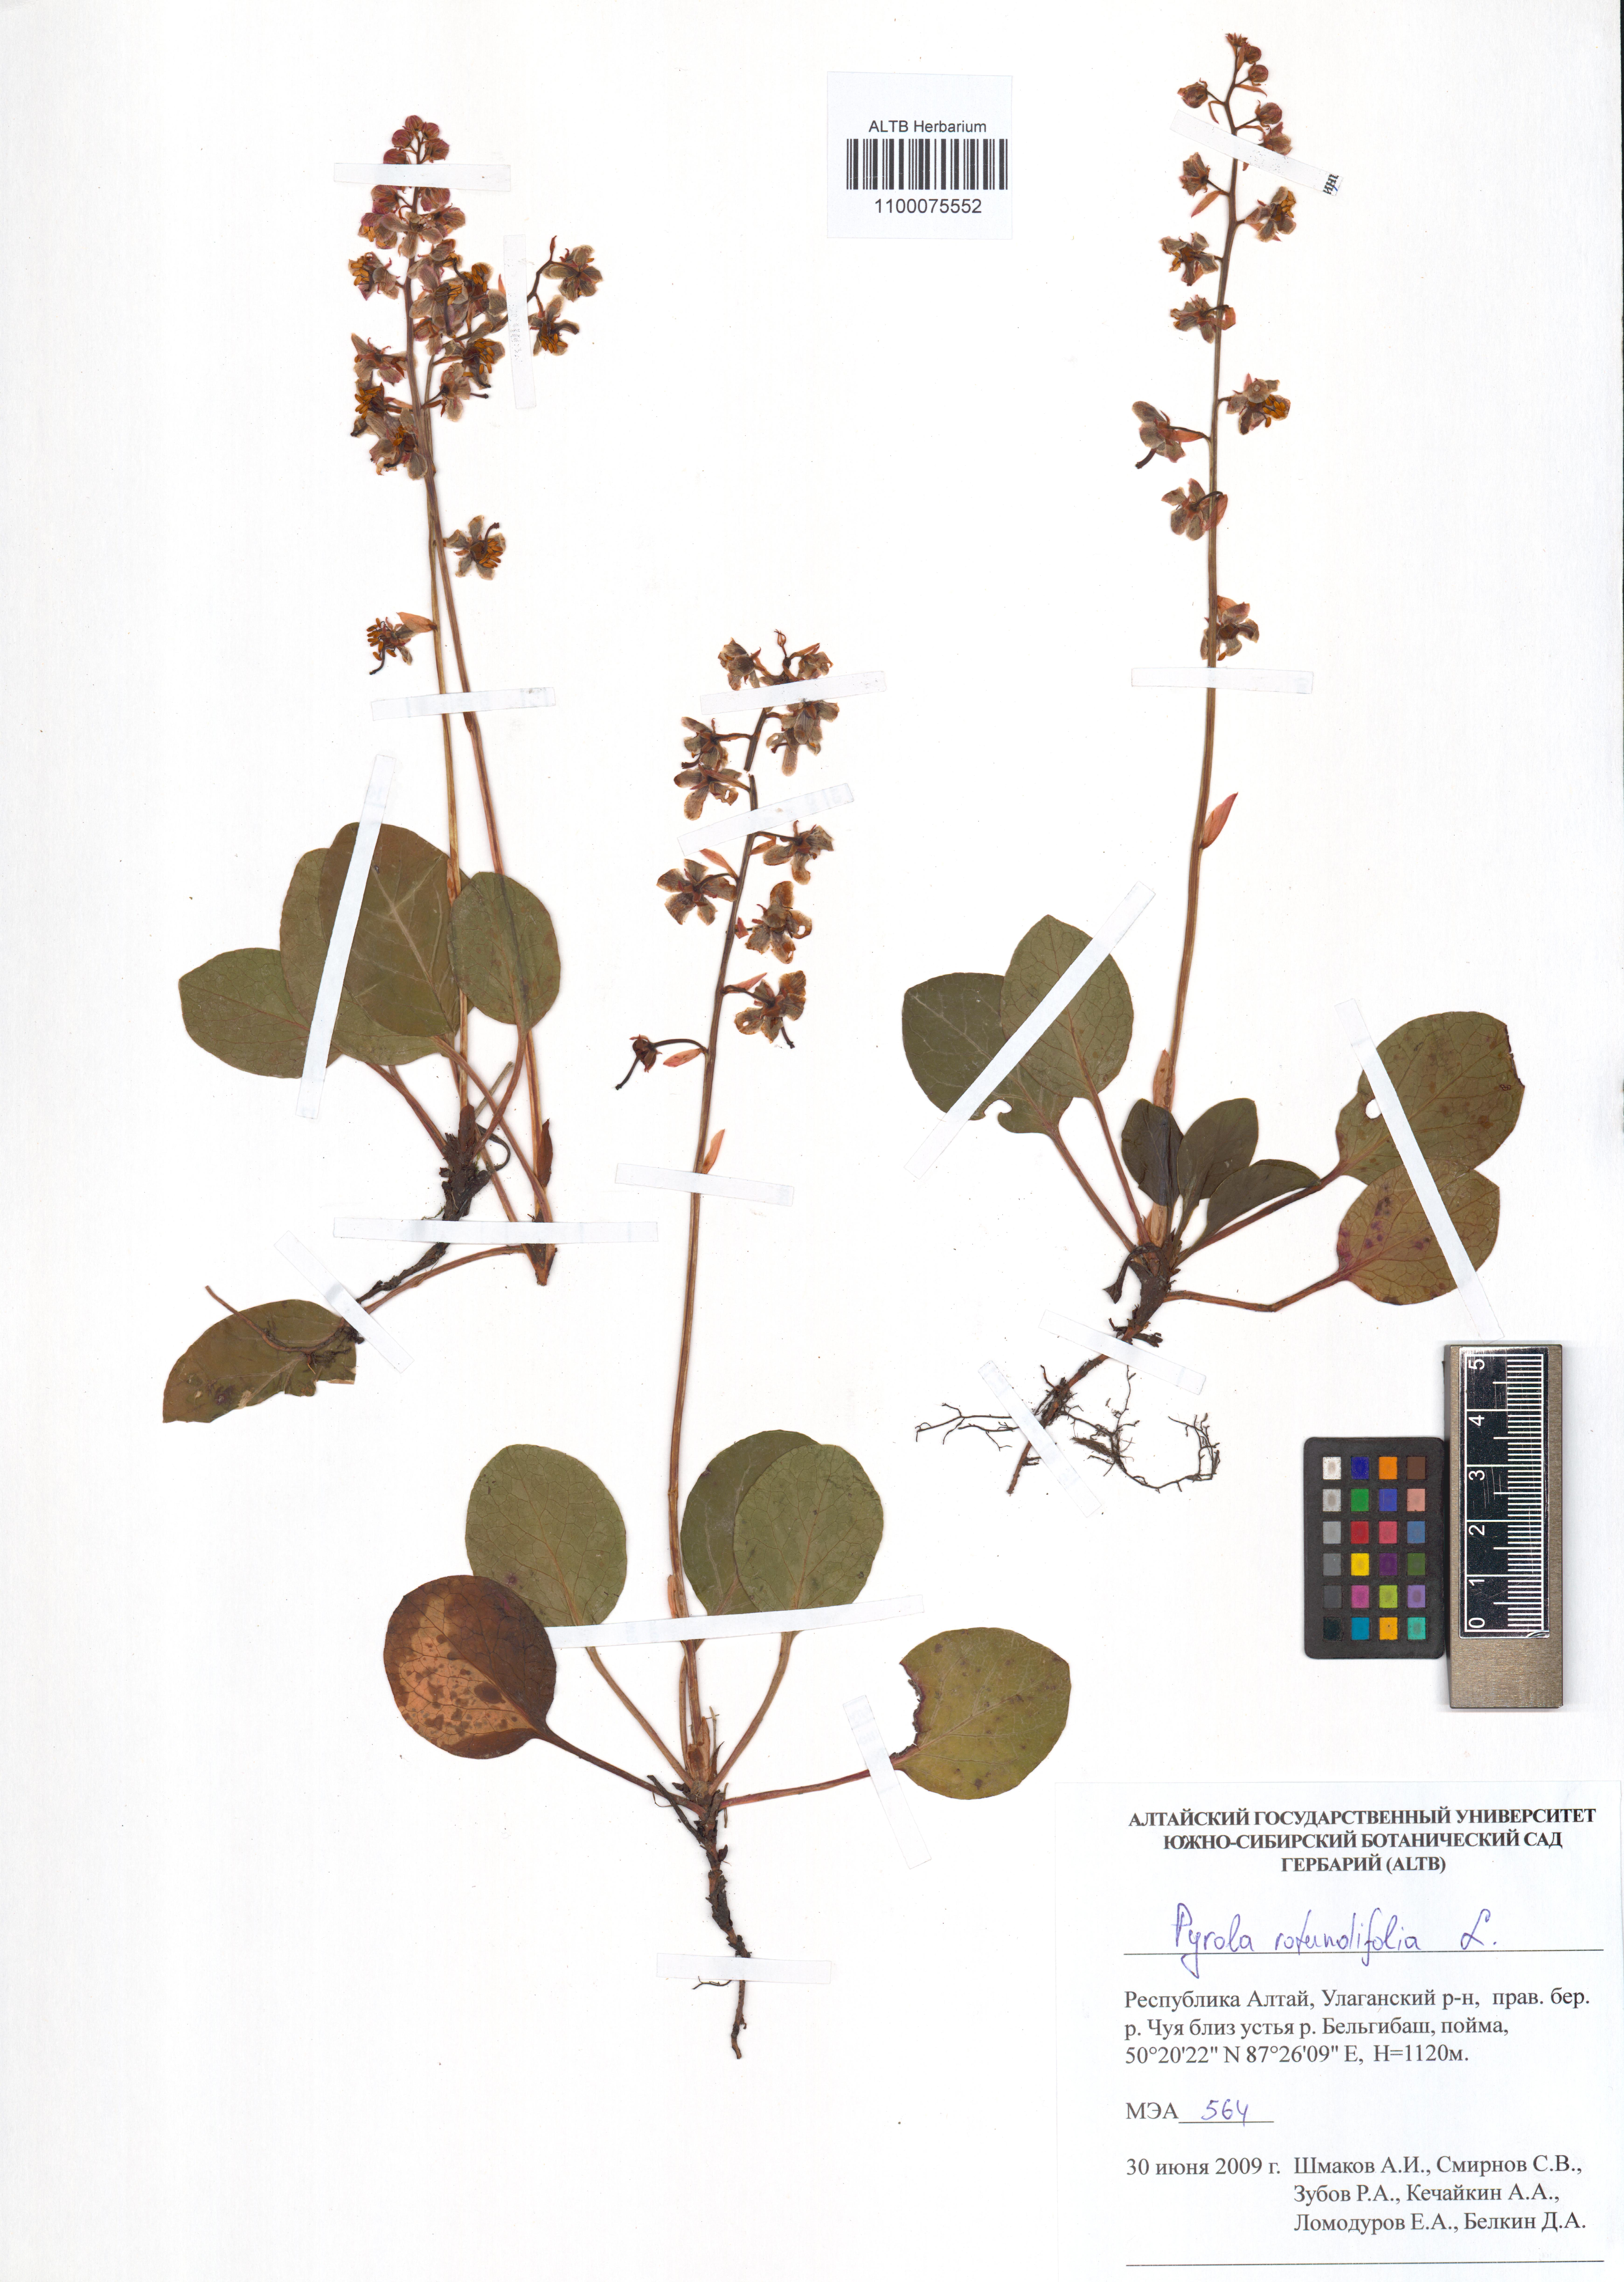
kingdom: Plantae
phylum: Tracheophyta
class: Magnoliopsida
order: Ericales
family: Ericaceae
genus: Pyrola
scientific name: Pyrola rotundifolia
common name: Round-leaved wintergreen
